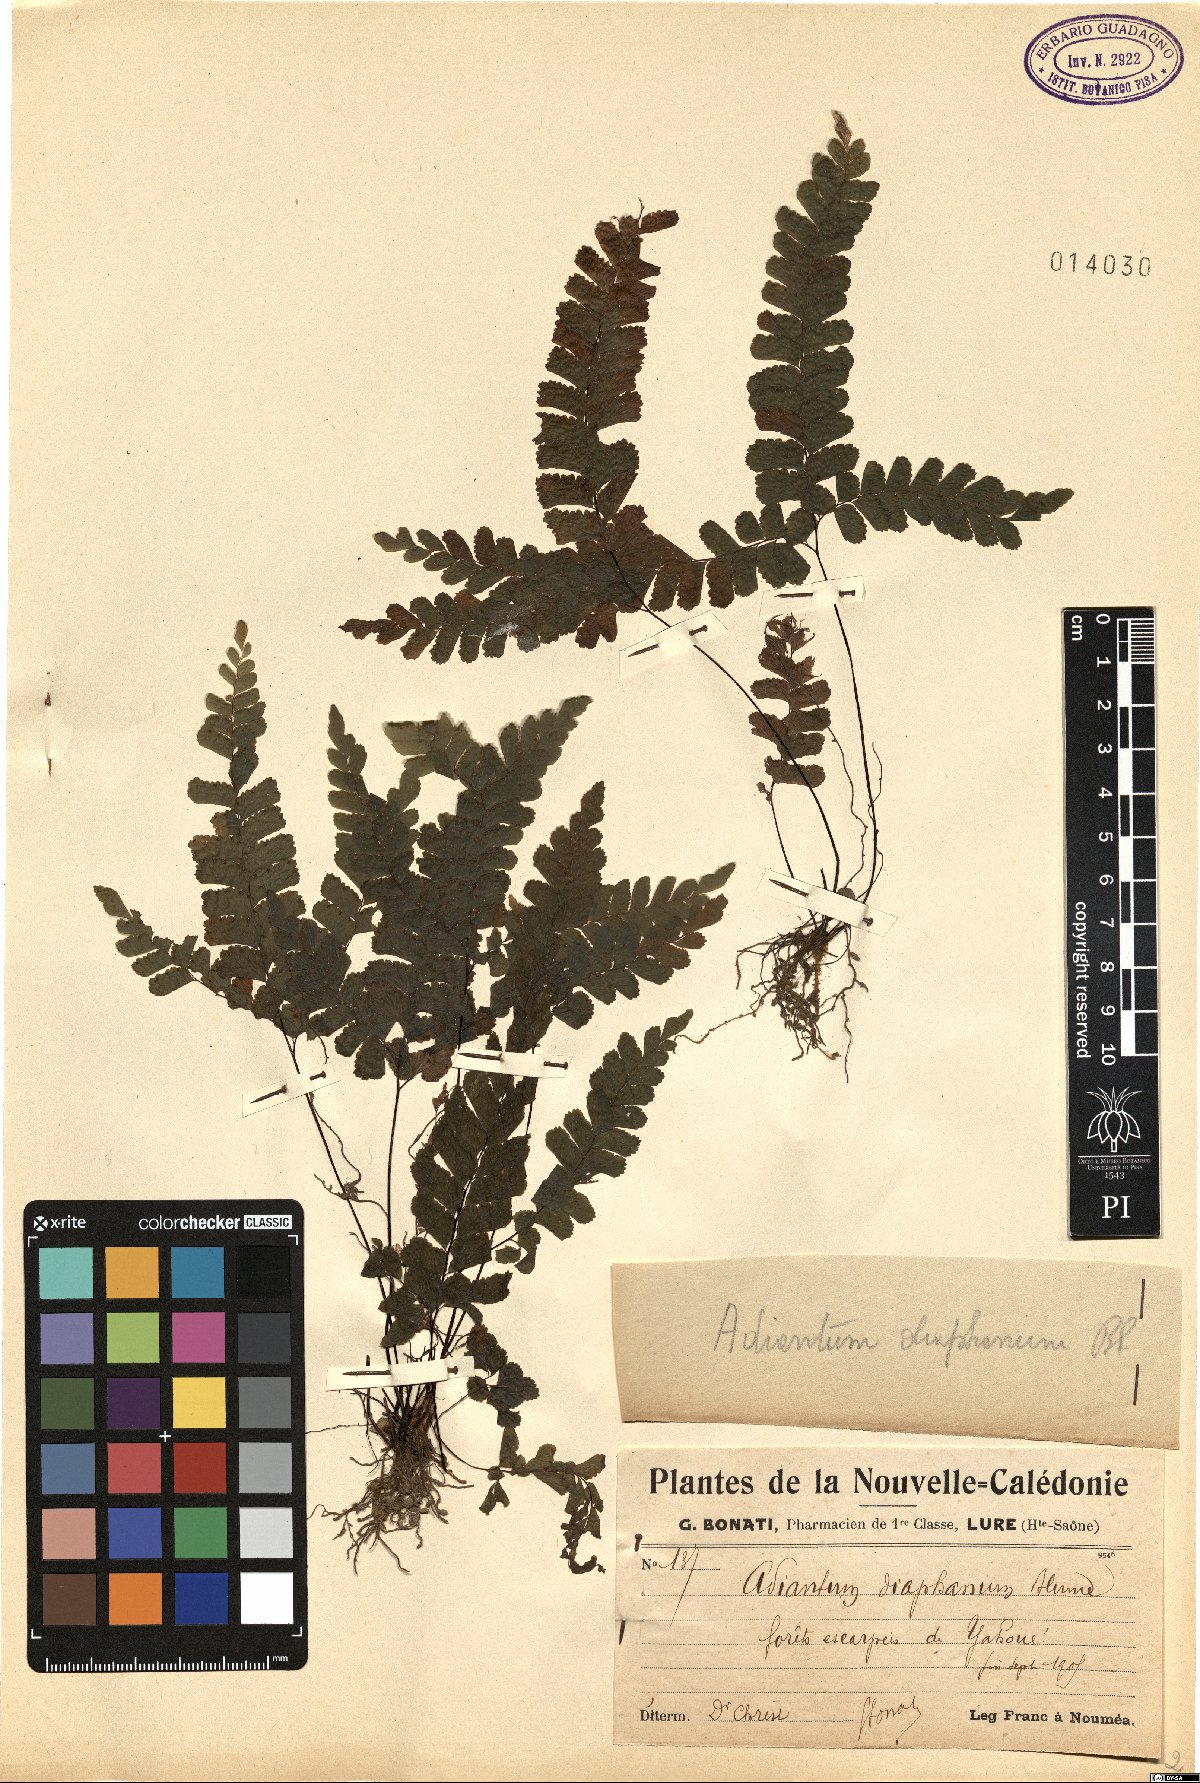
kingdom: Plantae
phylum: Tracheophyta
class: Polypodiopsida
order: Polypodiales
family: Pteridaceae
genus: Adiantum
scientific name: Adiantum diaphanum
